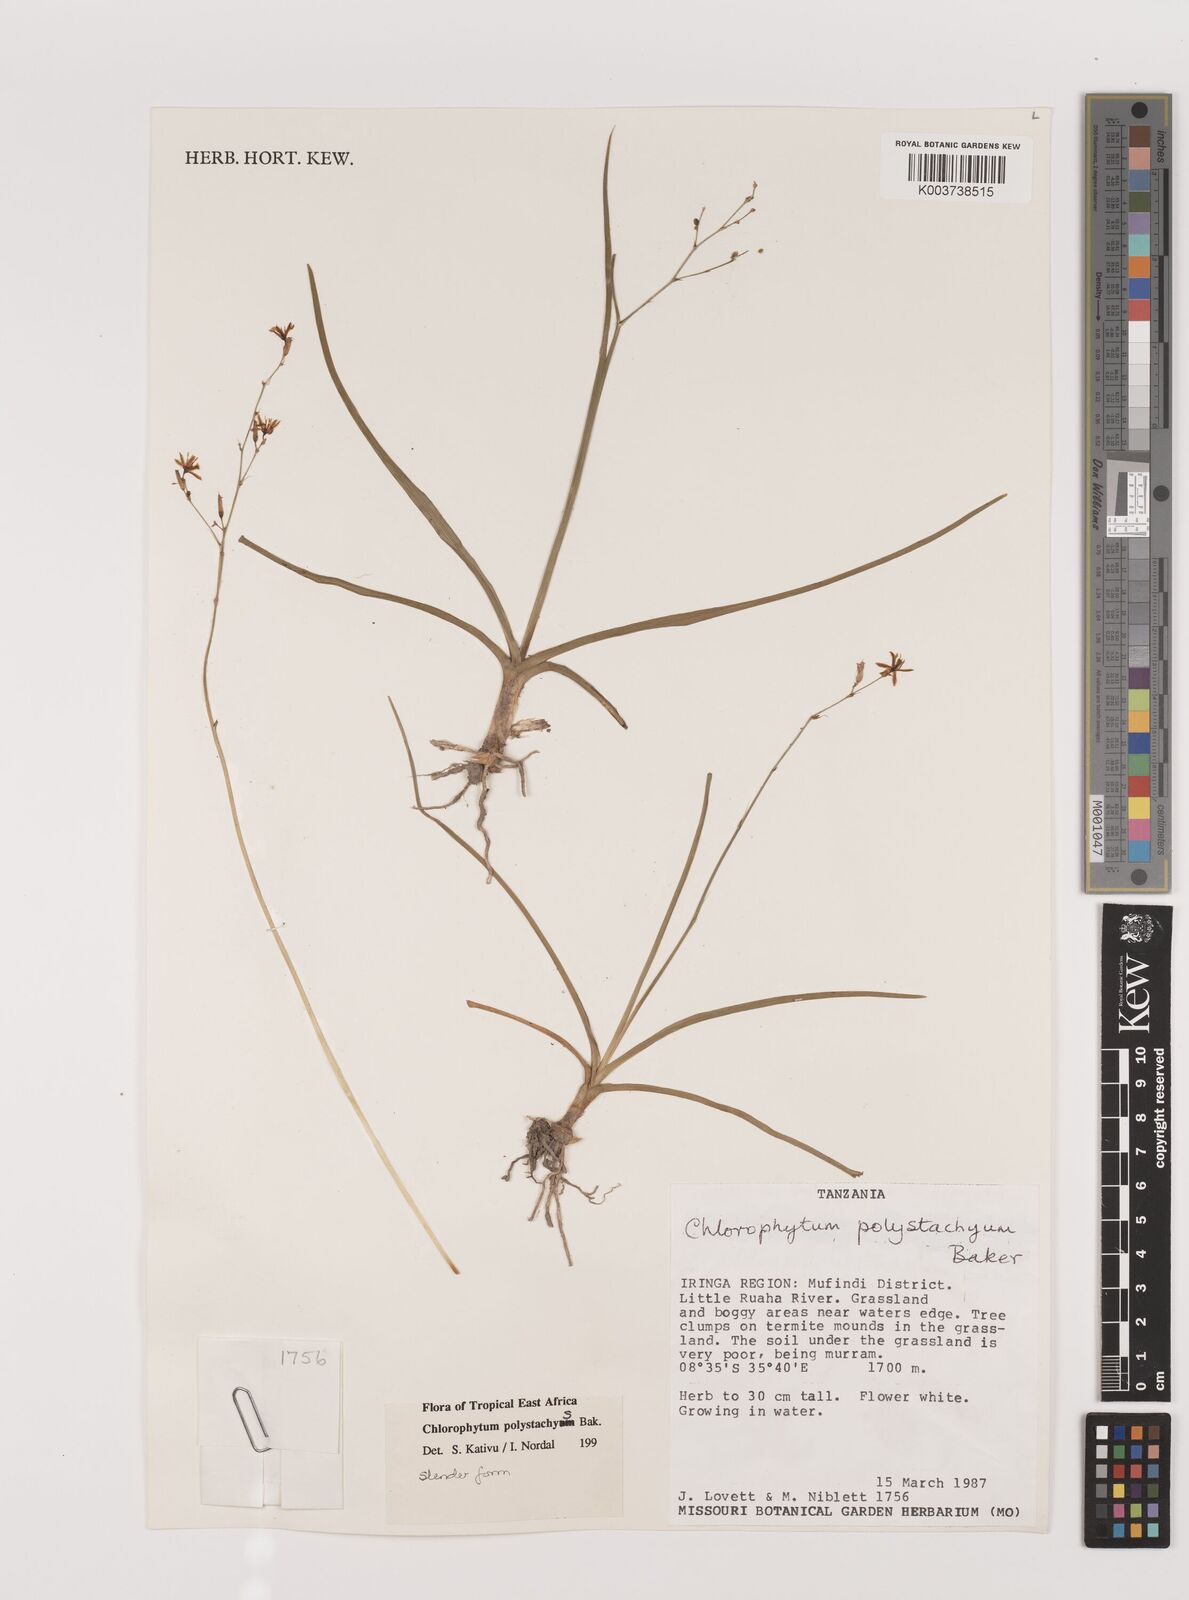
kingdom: Plantae
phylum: Tracheophyta
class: Liliopsida
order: Asparagales
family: Asparagaceae
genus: Chlorophytum
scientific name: Chlorophytum polystachys
